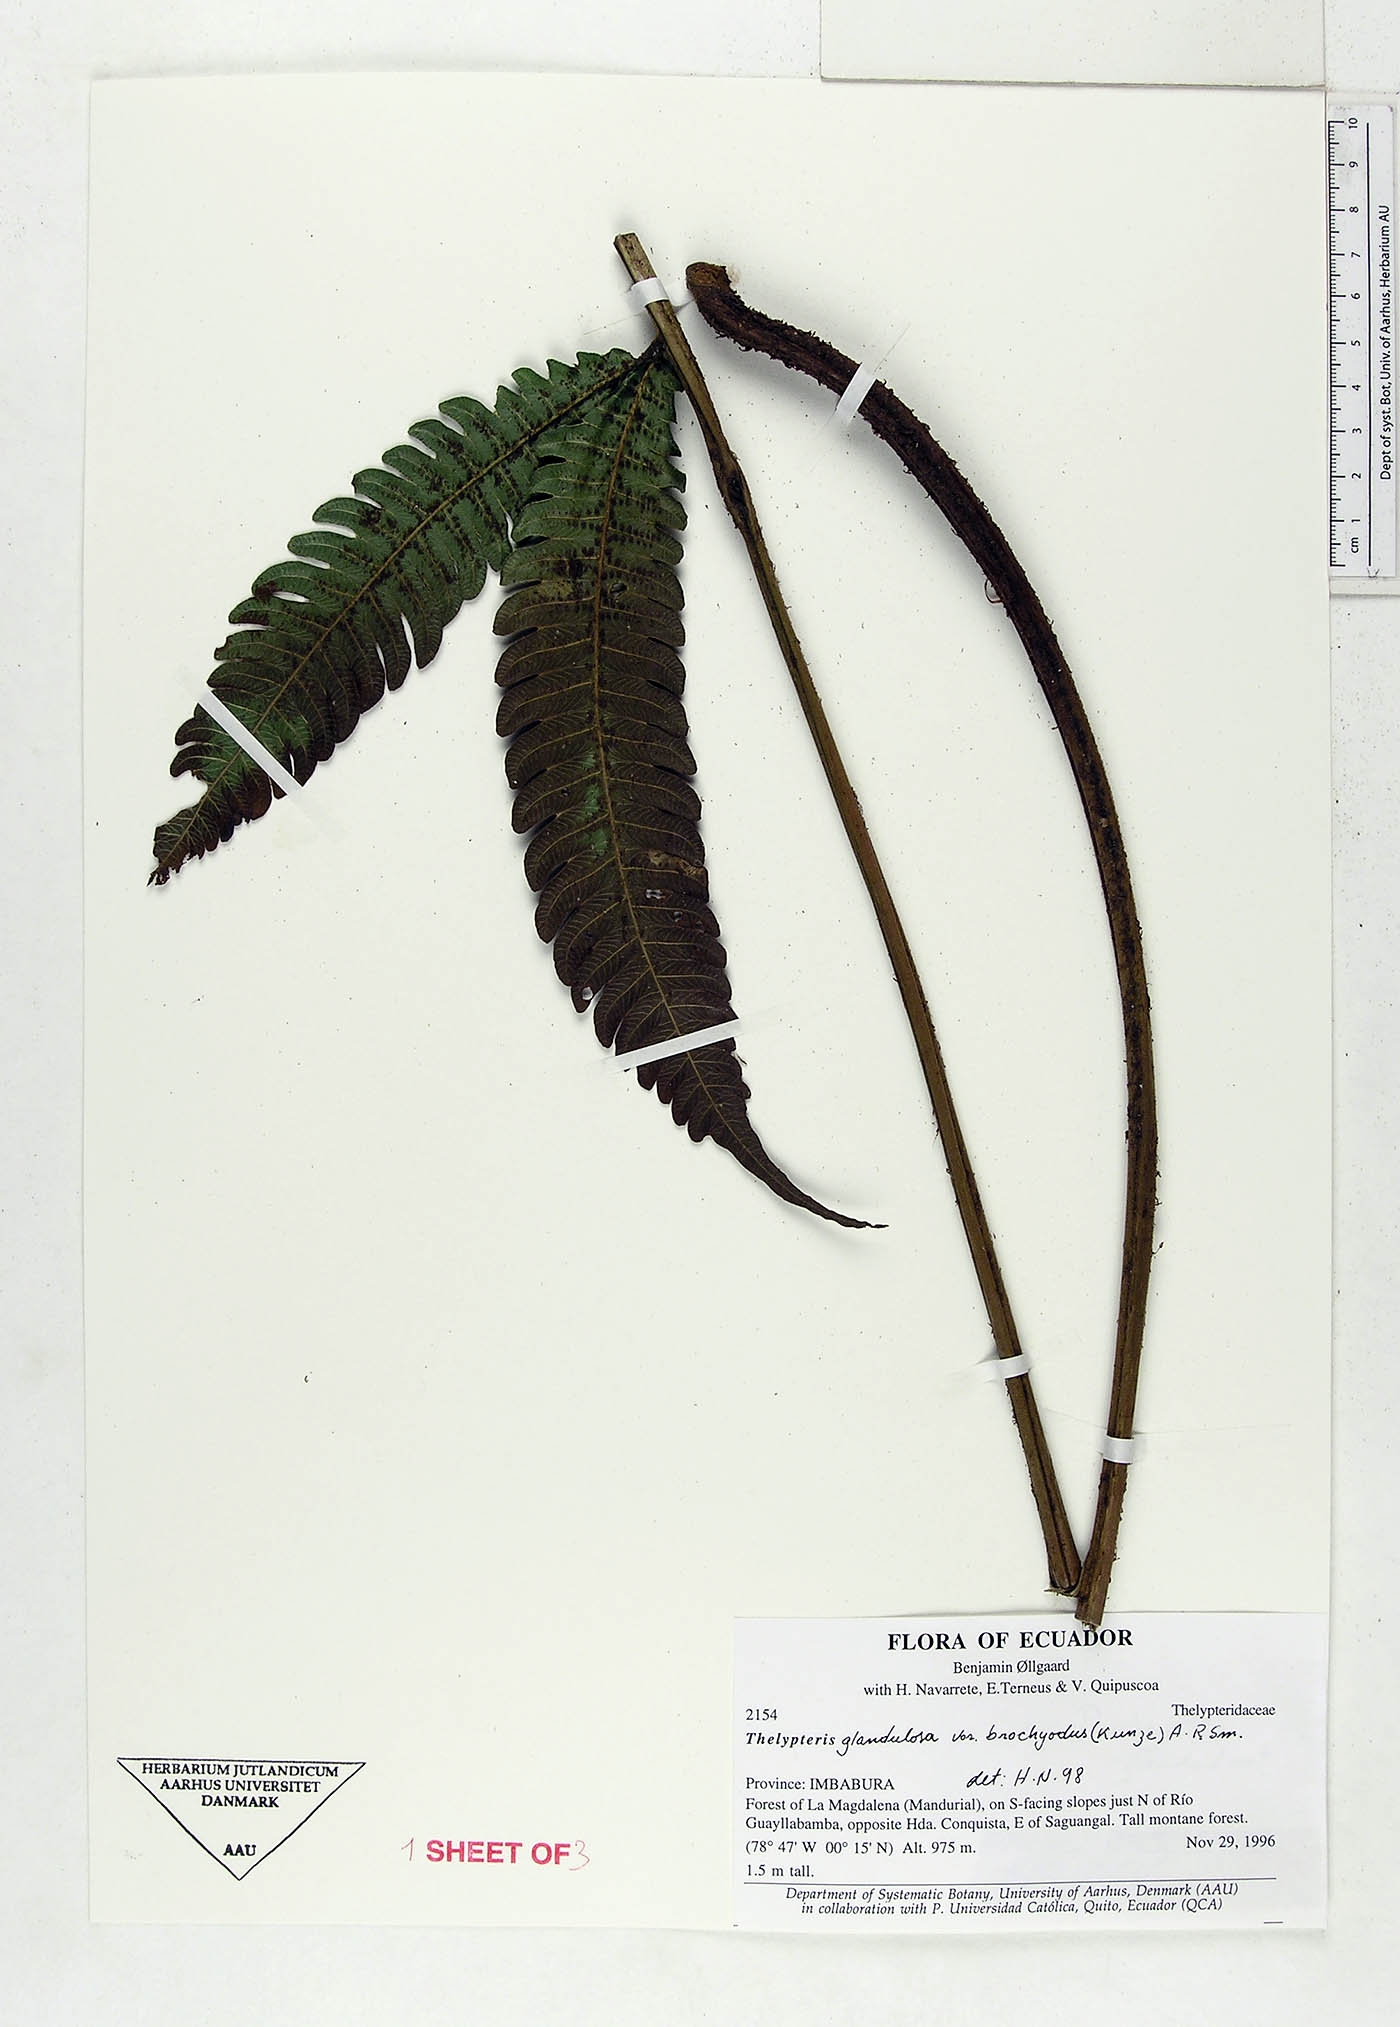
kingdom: Plantae
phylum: Tracheophyta
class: Polypodiopsida
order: Polypodiales
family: Thelypteridaceae
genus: Steiropteris
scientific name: Steiropteris glandulosa
